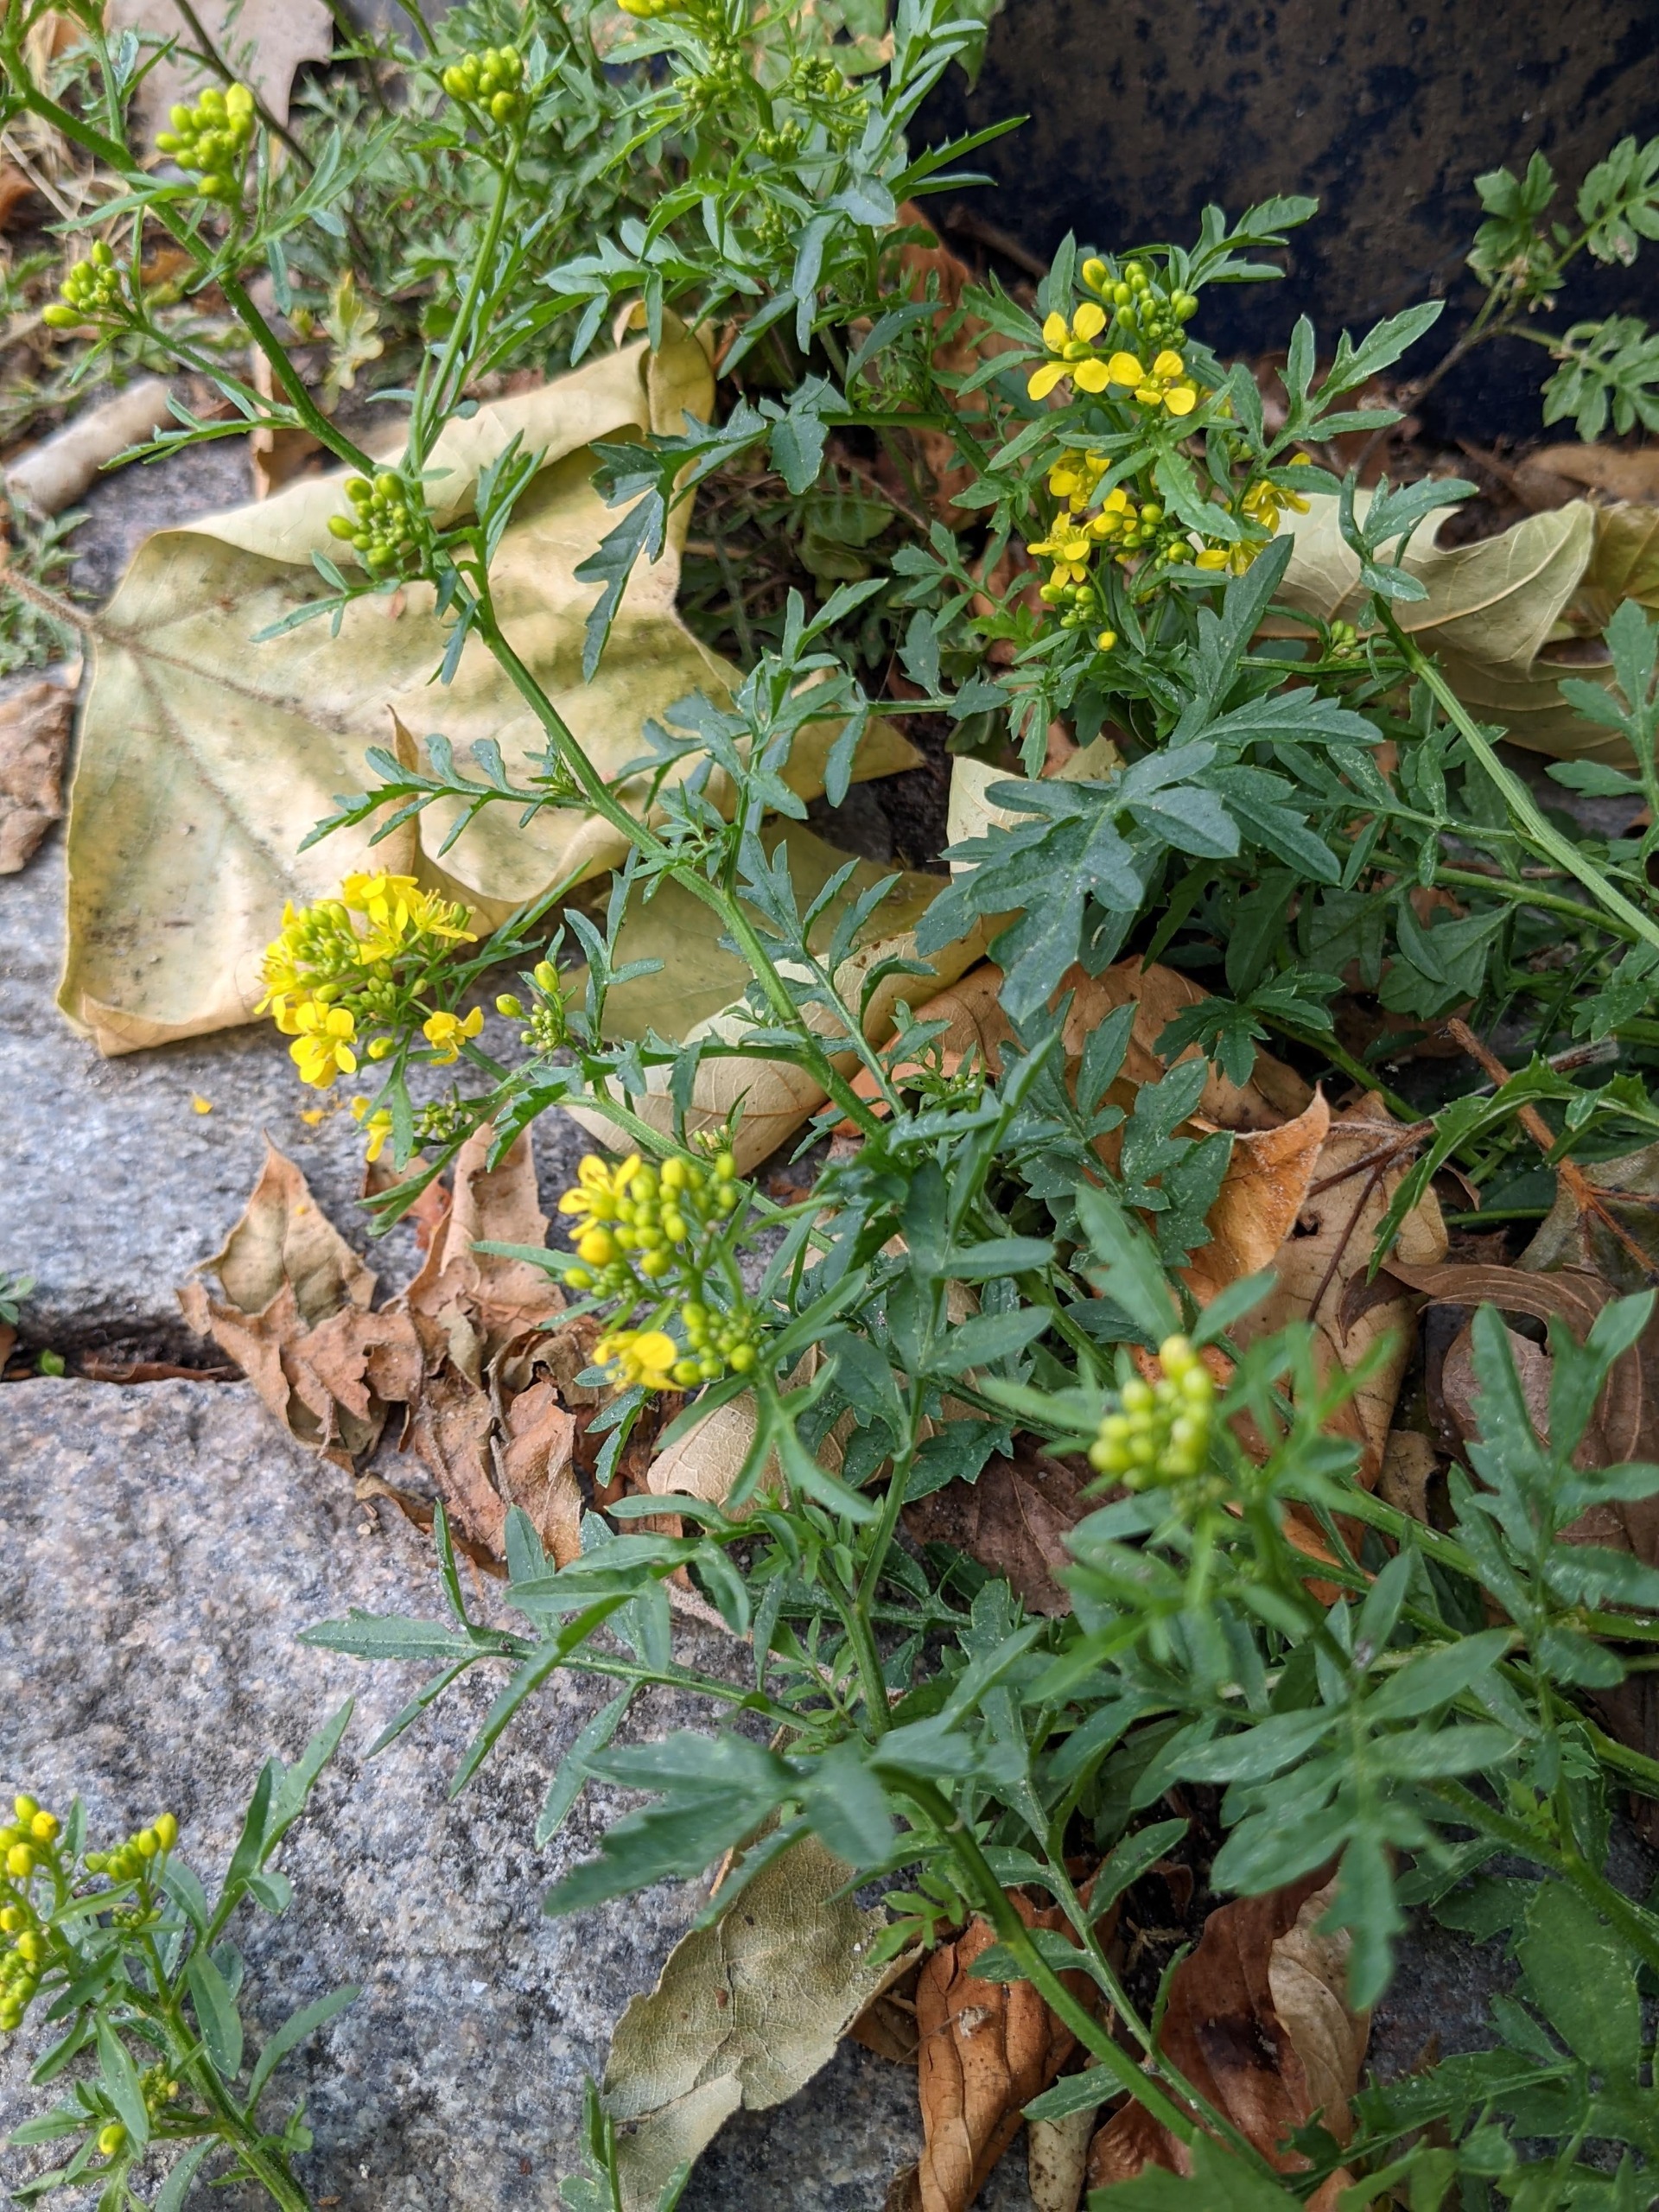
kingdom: Plantae
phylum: Tracheophyta
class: Magnoliopsida
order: Brassicales
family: Brassicaceae
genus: Rorippa
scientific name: Rorippa sylvestris
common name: Vej-guldkarse
